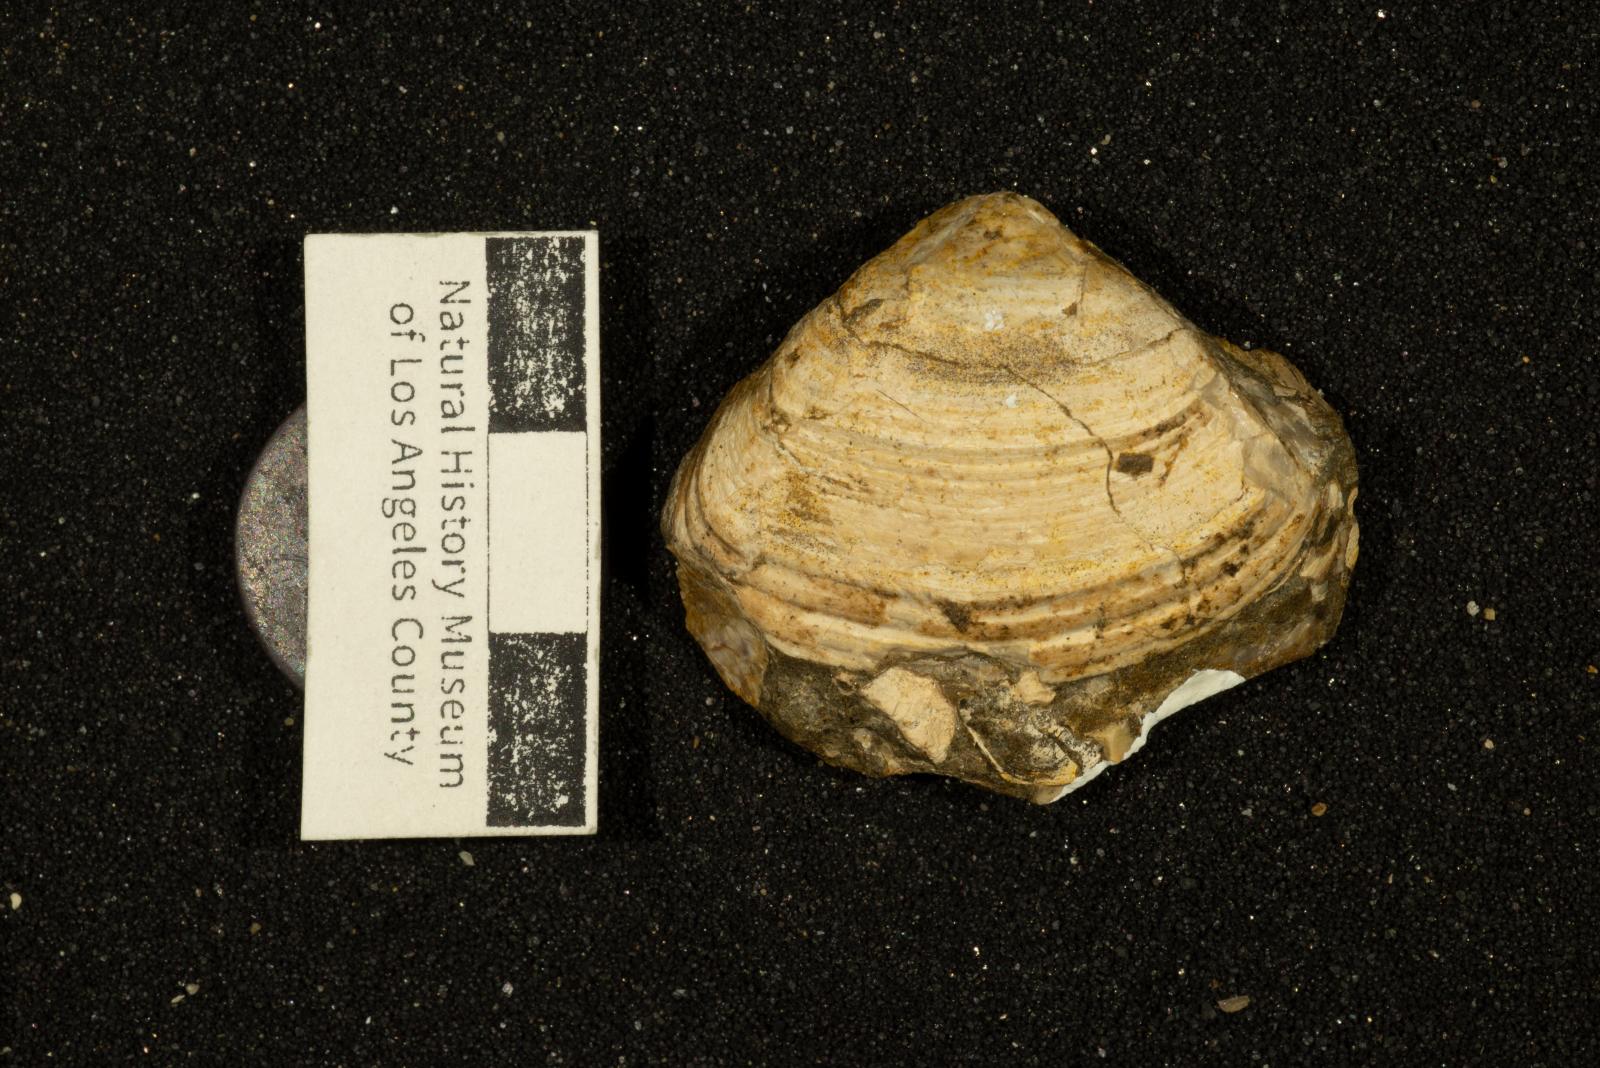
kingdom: Animalia
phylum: Mollusca
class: Bivalvia
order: Venerida
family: Mactridae
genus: Cymbophora
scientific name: Cymbophora Mactra stantoni
